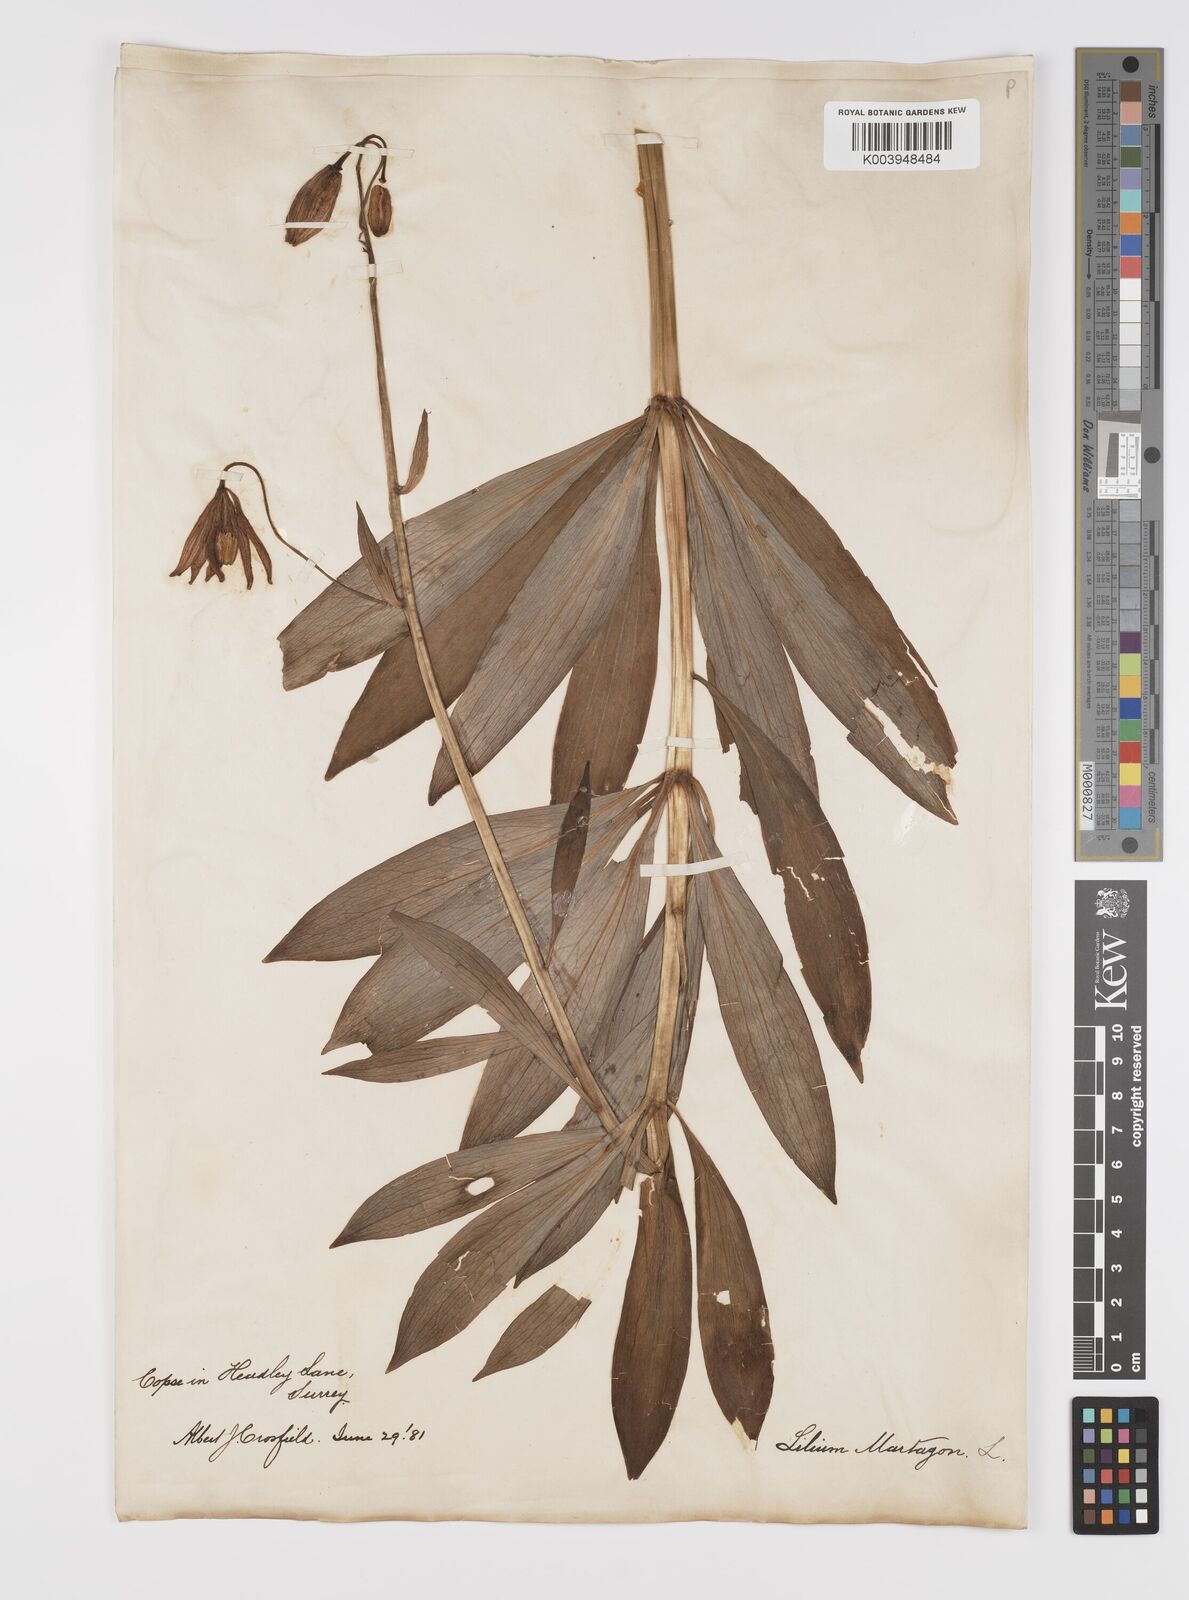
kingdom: Plantae
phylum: Tracheophyta
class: Liliopsida
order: Liliales
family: Liliaceae
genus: Lilium
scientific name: Lilium martagon
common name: Martagon lily
